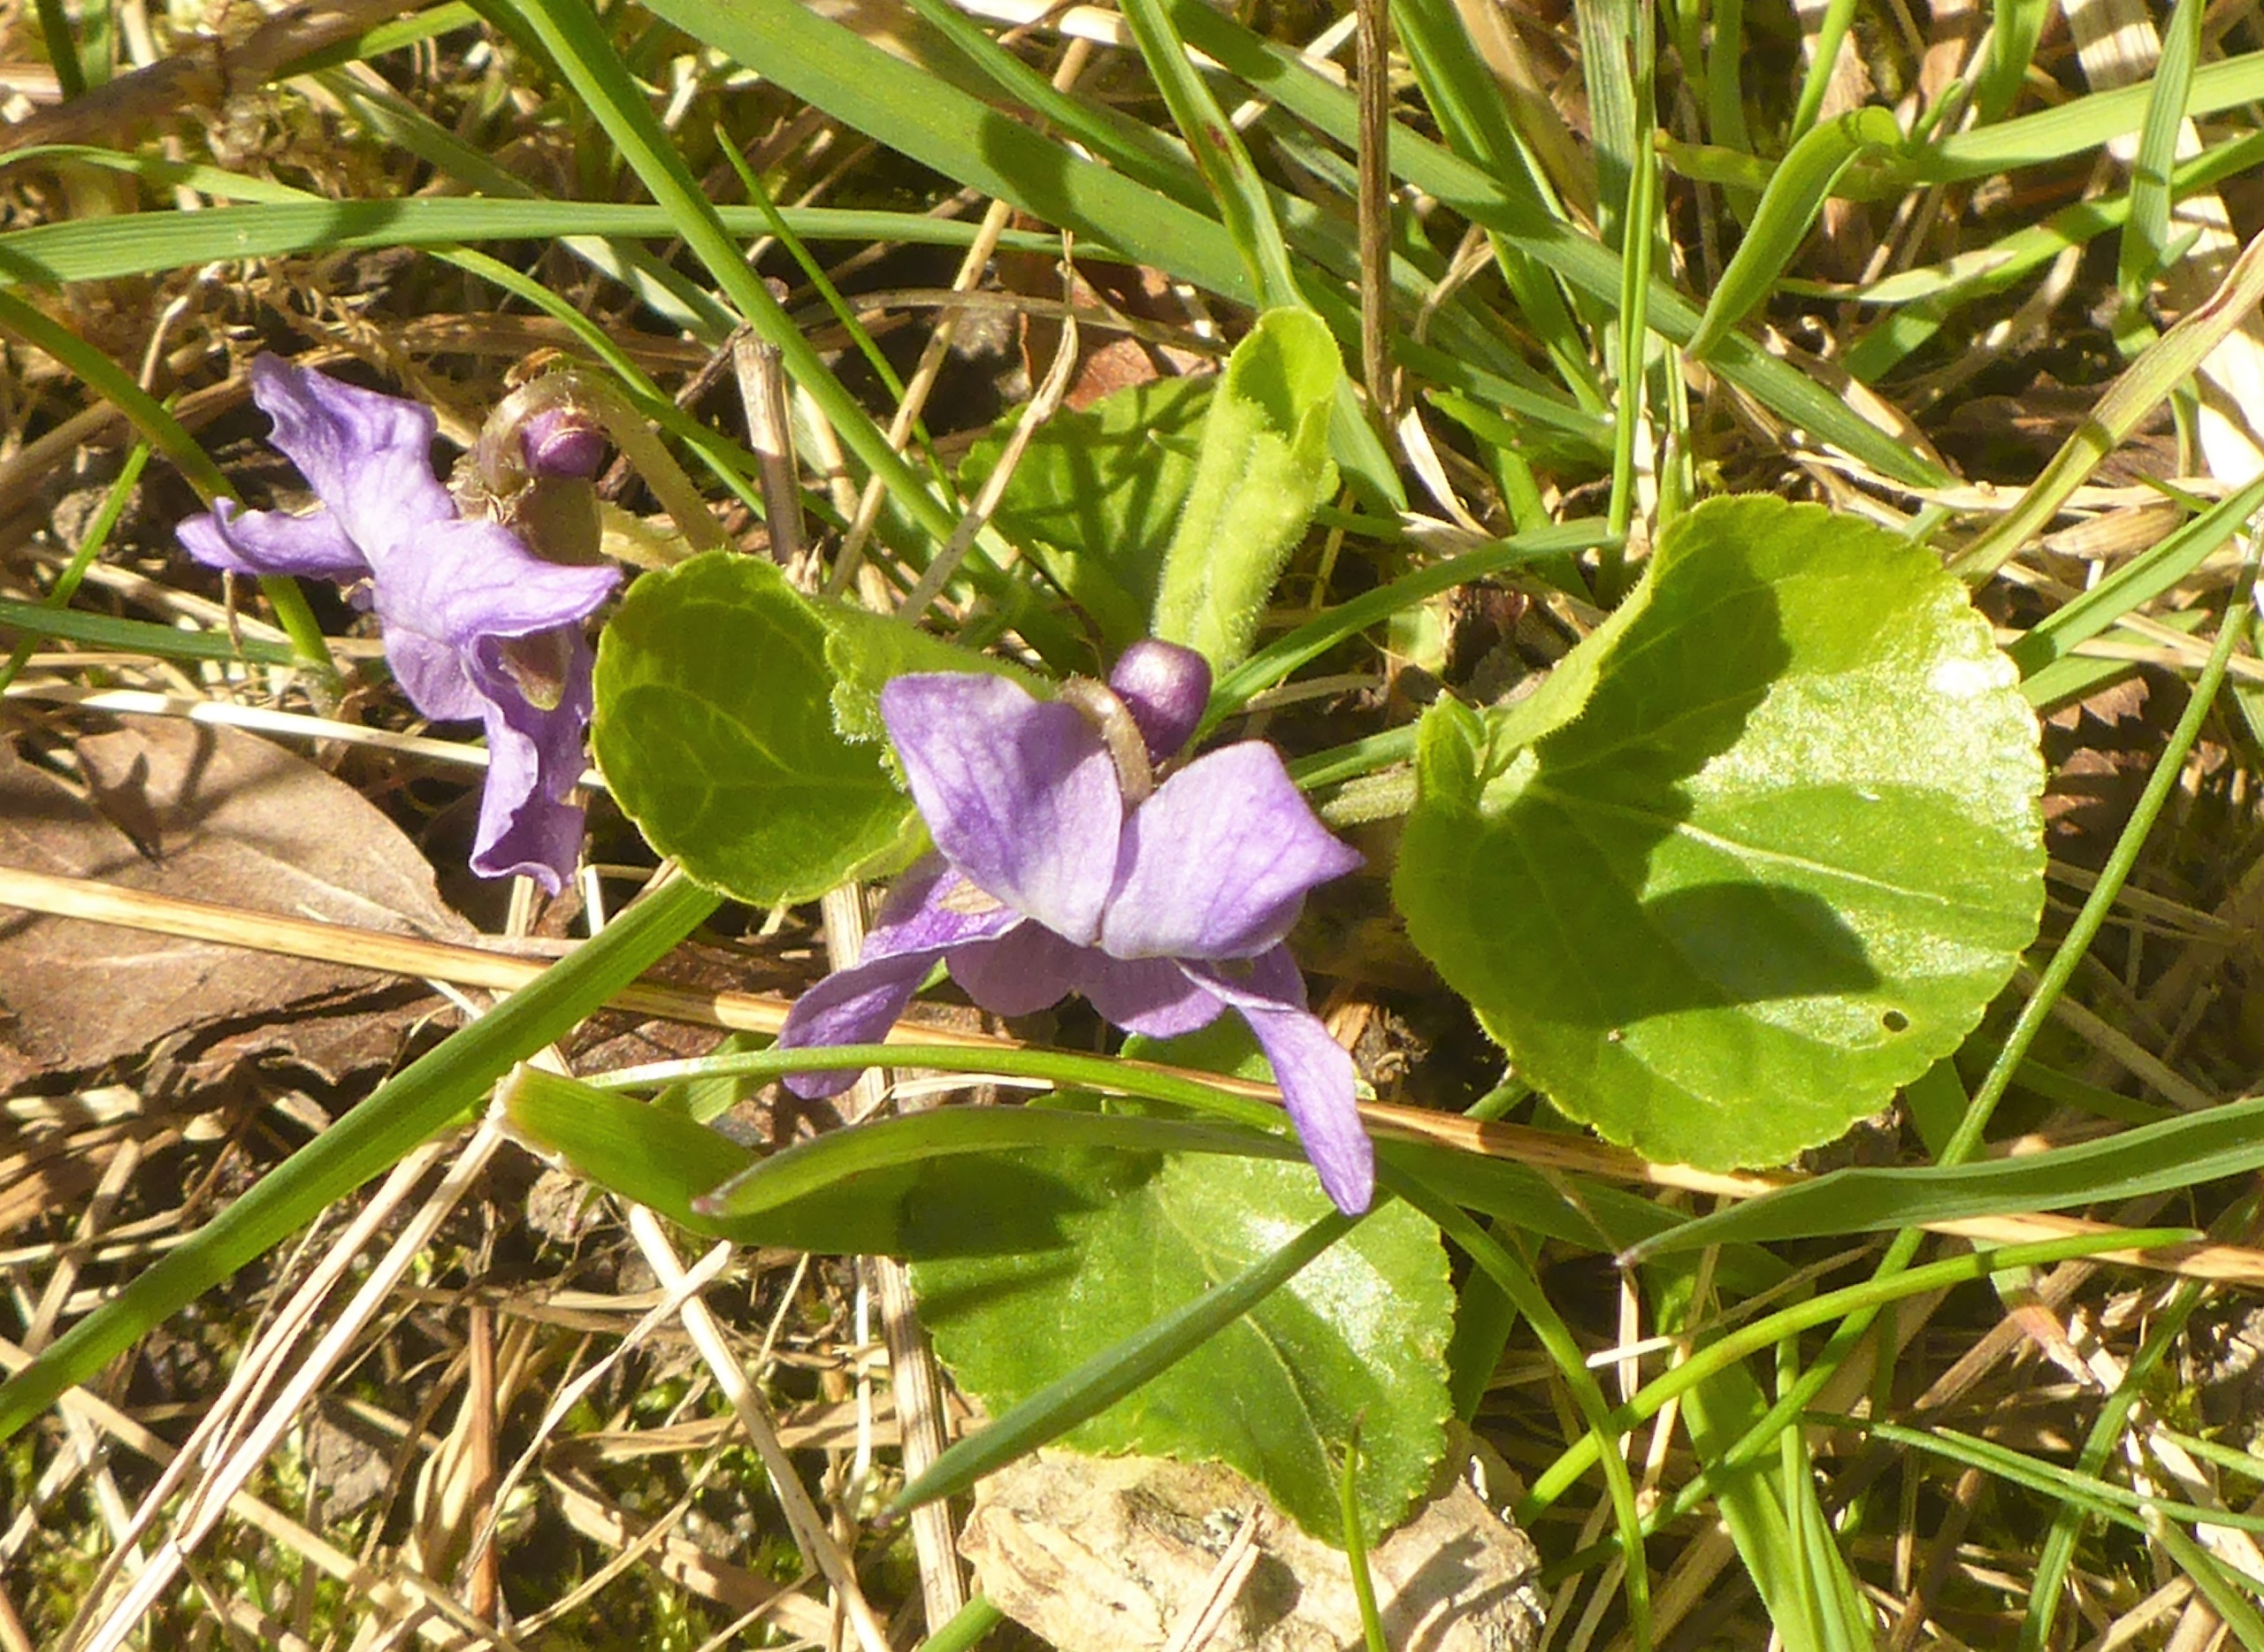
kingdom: Plantae
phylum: Tracheophyta
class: Magnoliopsida
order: Malpighiales
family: Violaceae
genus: Viola
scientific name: Viola odorata
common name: Marts-viol
